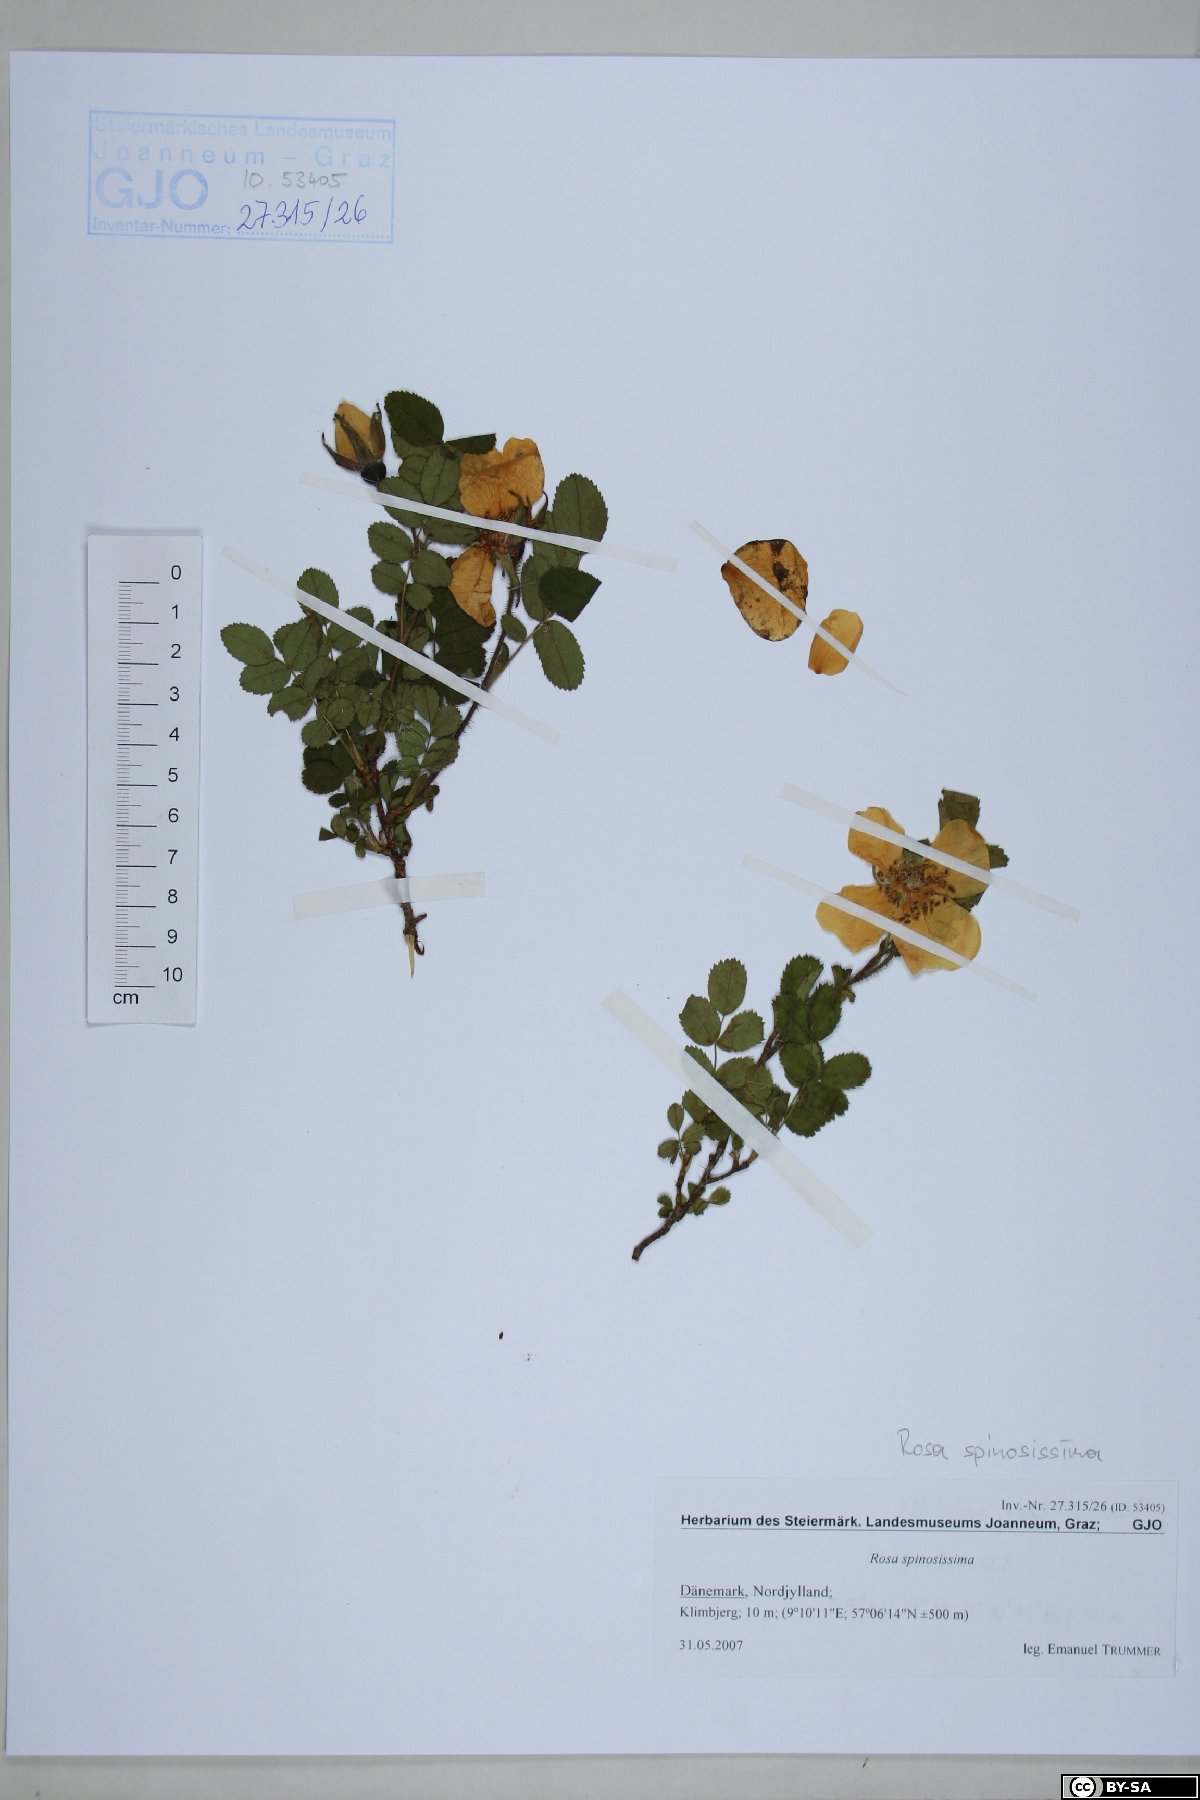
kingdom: Plantae
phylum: Tracheophyta
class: Magnoliopsida
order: Rosales
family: Rosaceae
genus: Rosa
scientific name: Rosa spinosissima
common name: Burnet rose
